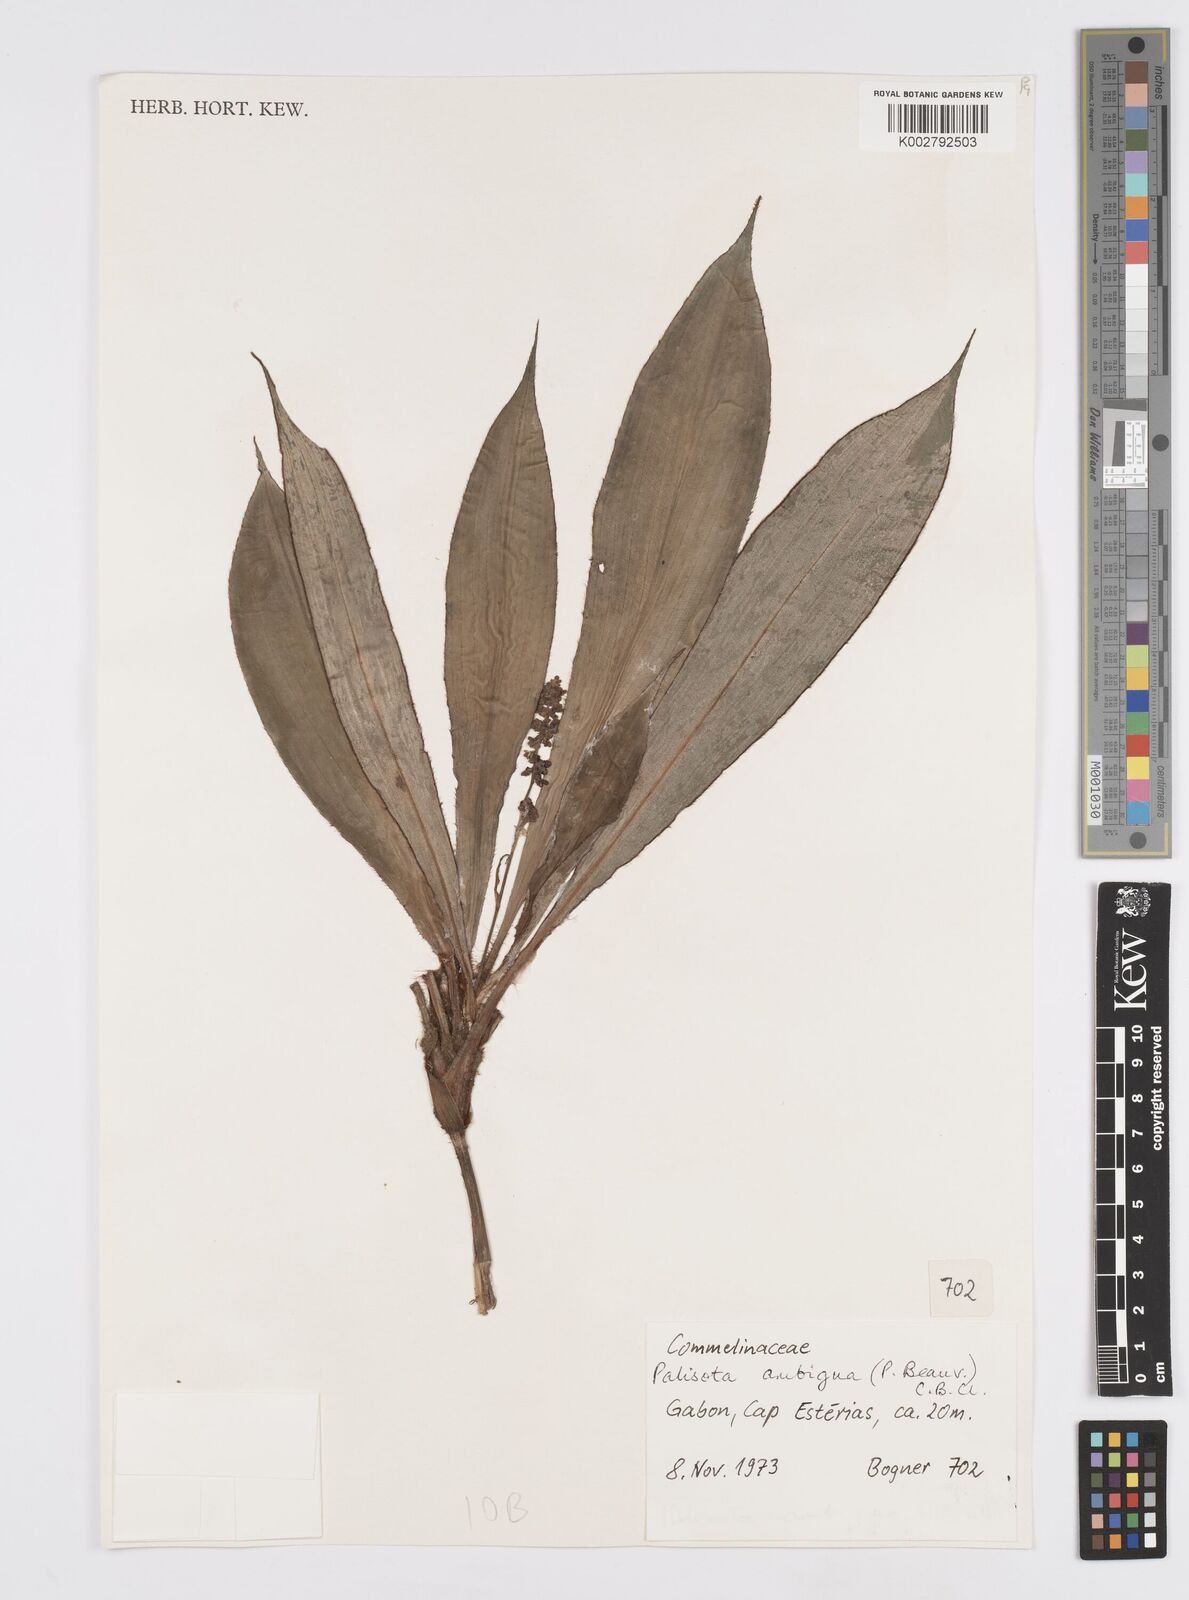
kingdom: Plantae
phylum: Tracheophyta
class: Liliopsida
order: Commelinales
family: Commelinaceae
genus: Palisota
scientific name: Palisota ambigua
